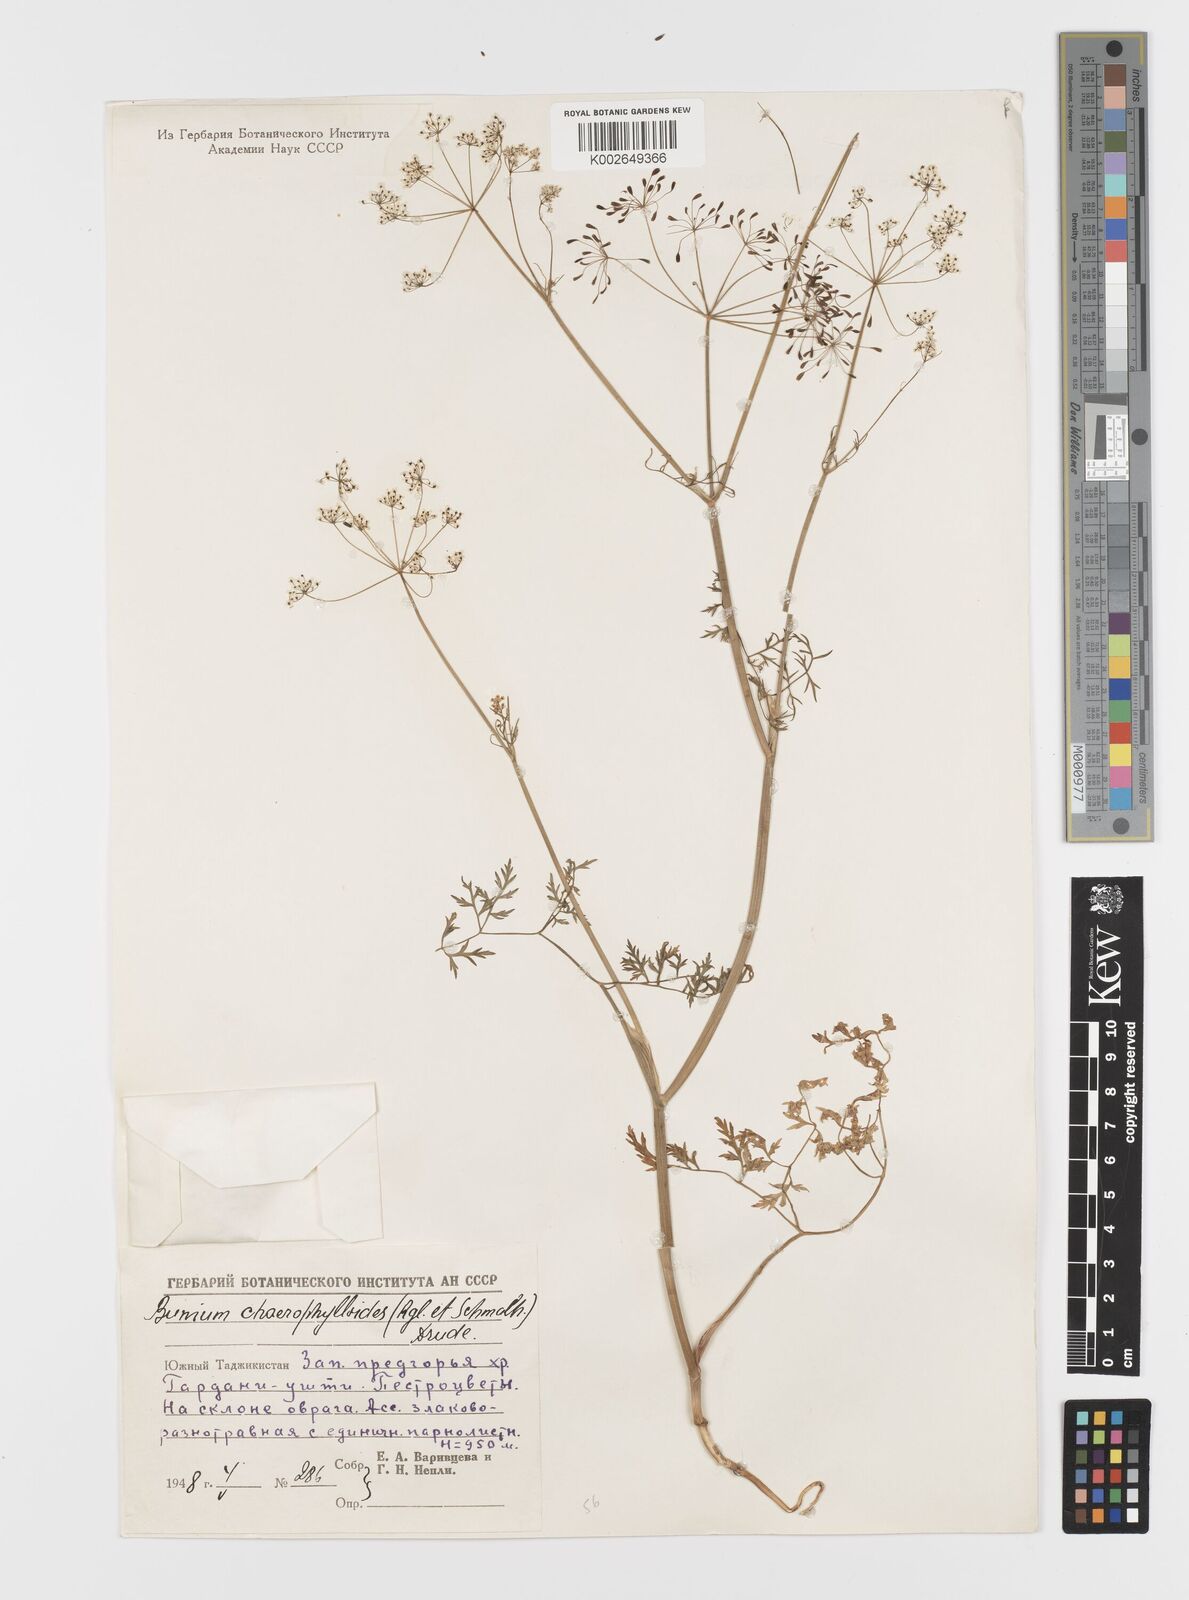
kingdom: Plantae
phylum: Tracheophyta
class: Magnoliopsida
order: Apiales
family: Apiaceae
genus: Elwendia
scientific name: Elwendia chaerophylloides
